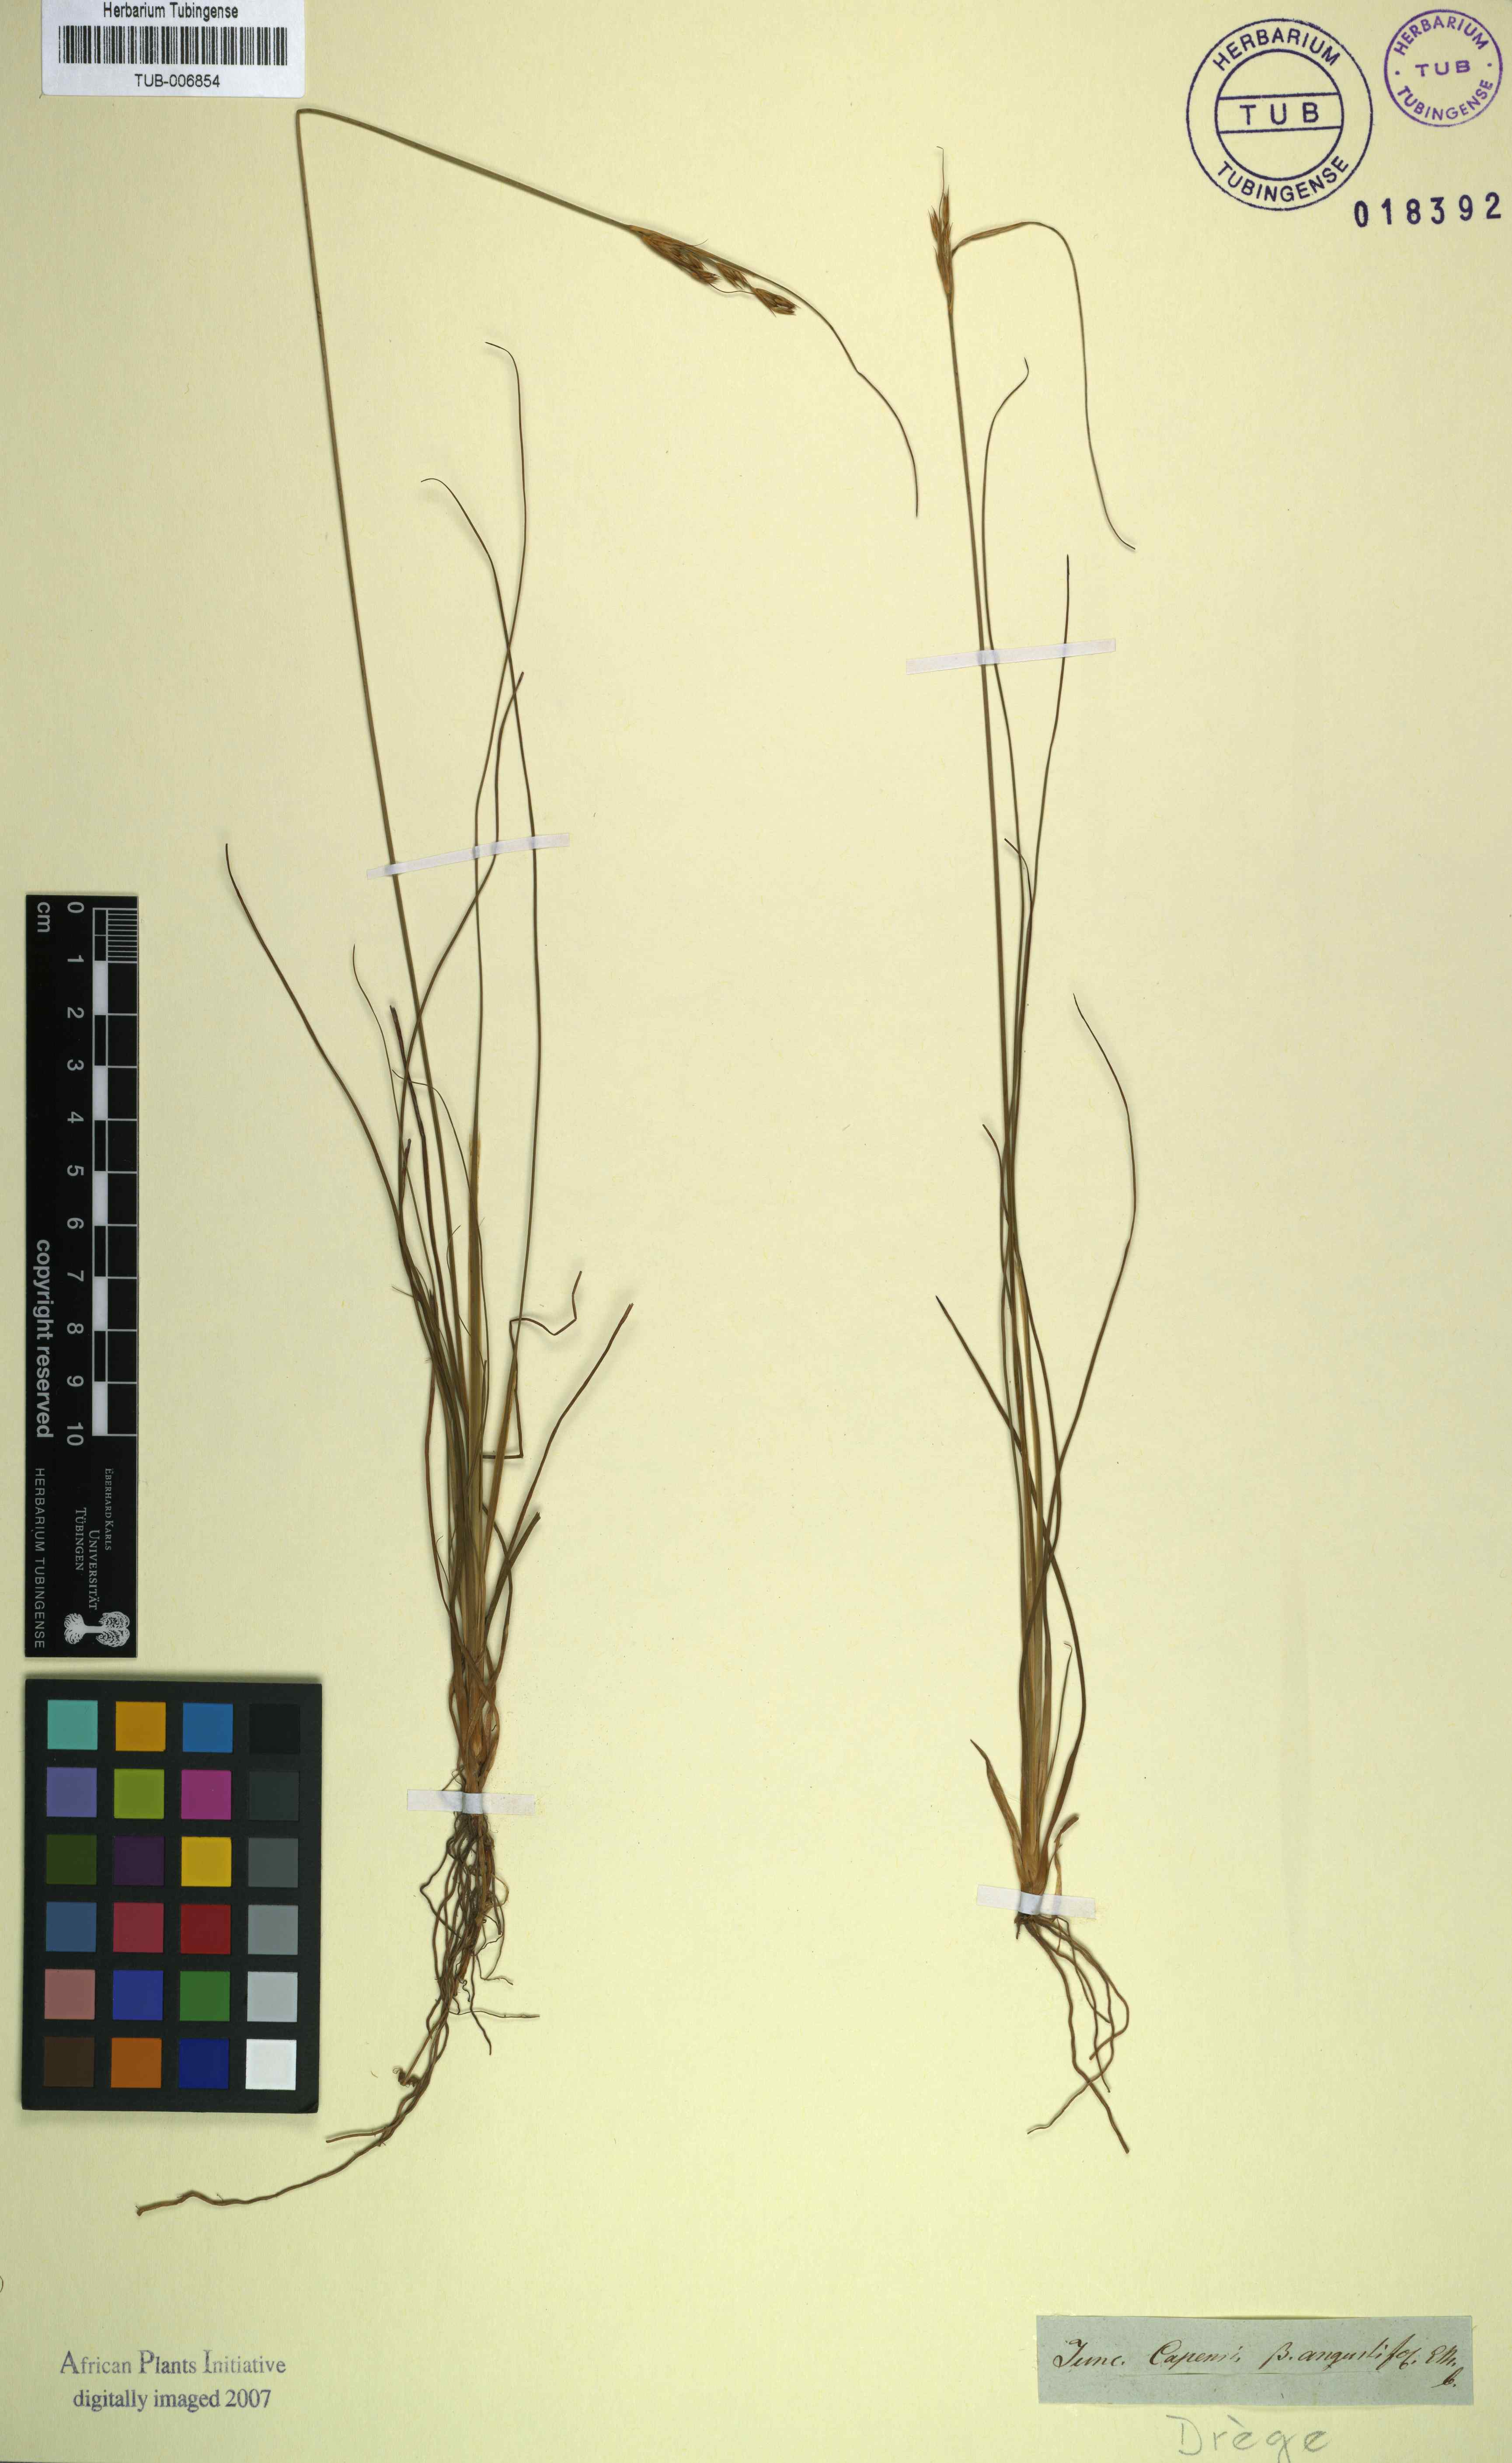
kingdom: Plantae
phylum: Tracheophyta
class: Liliopsida
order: Poales
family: Juncaceae
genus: Juncus
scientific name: Juncus capensis
